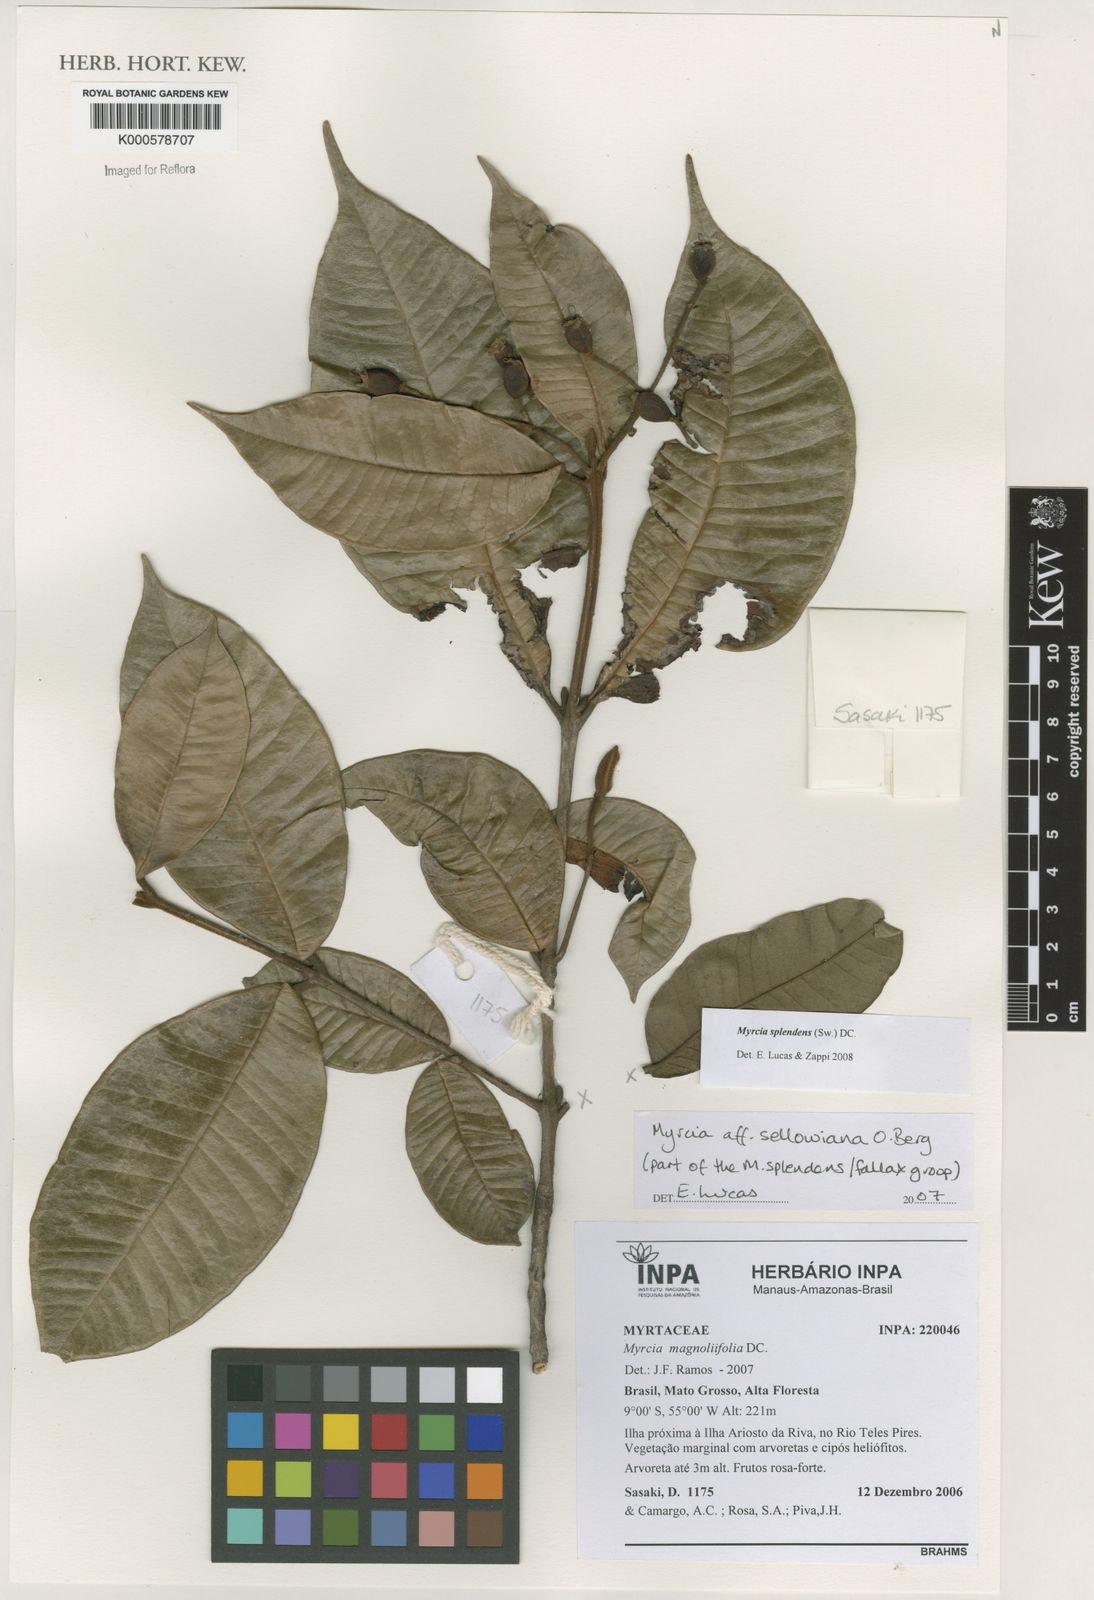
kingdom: Plantae
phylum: Tracheophyta
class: Magnoliopsida
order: Myrtales
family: Myrtaceae
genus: Myrcia
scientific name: Myrcia splendens
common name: Surinam cherry
